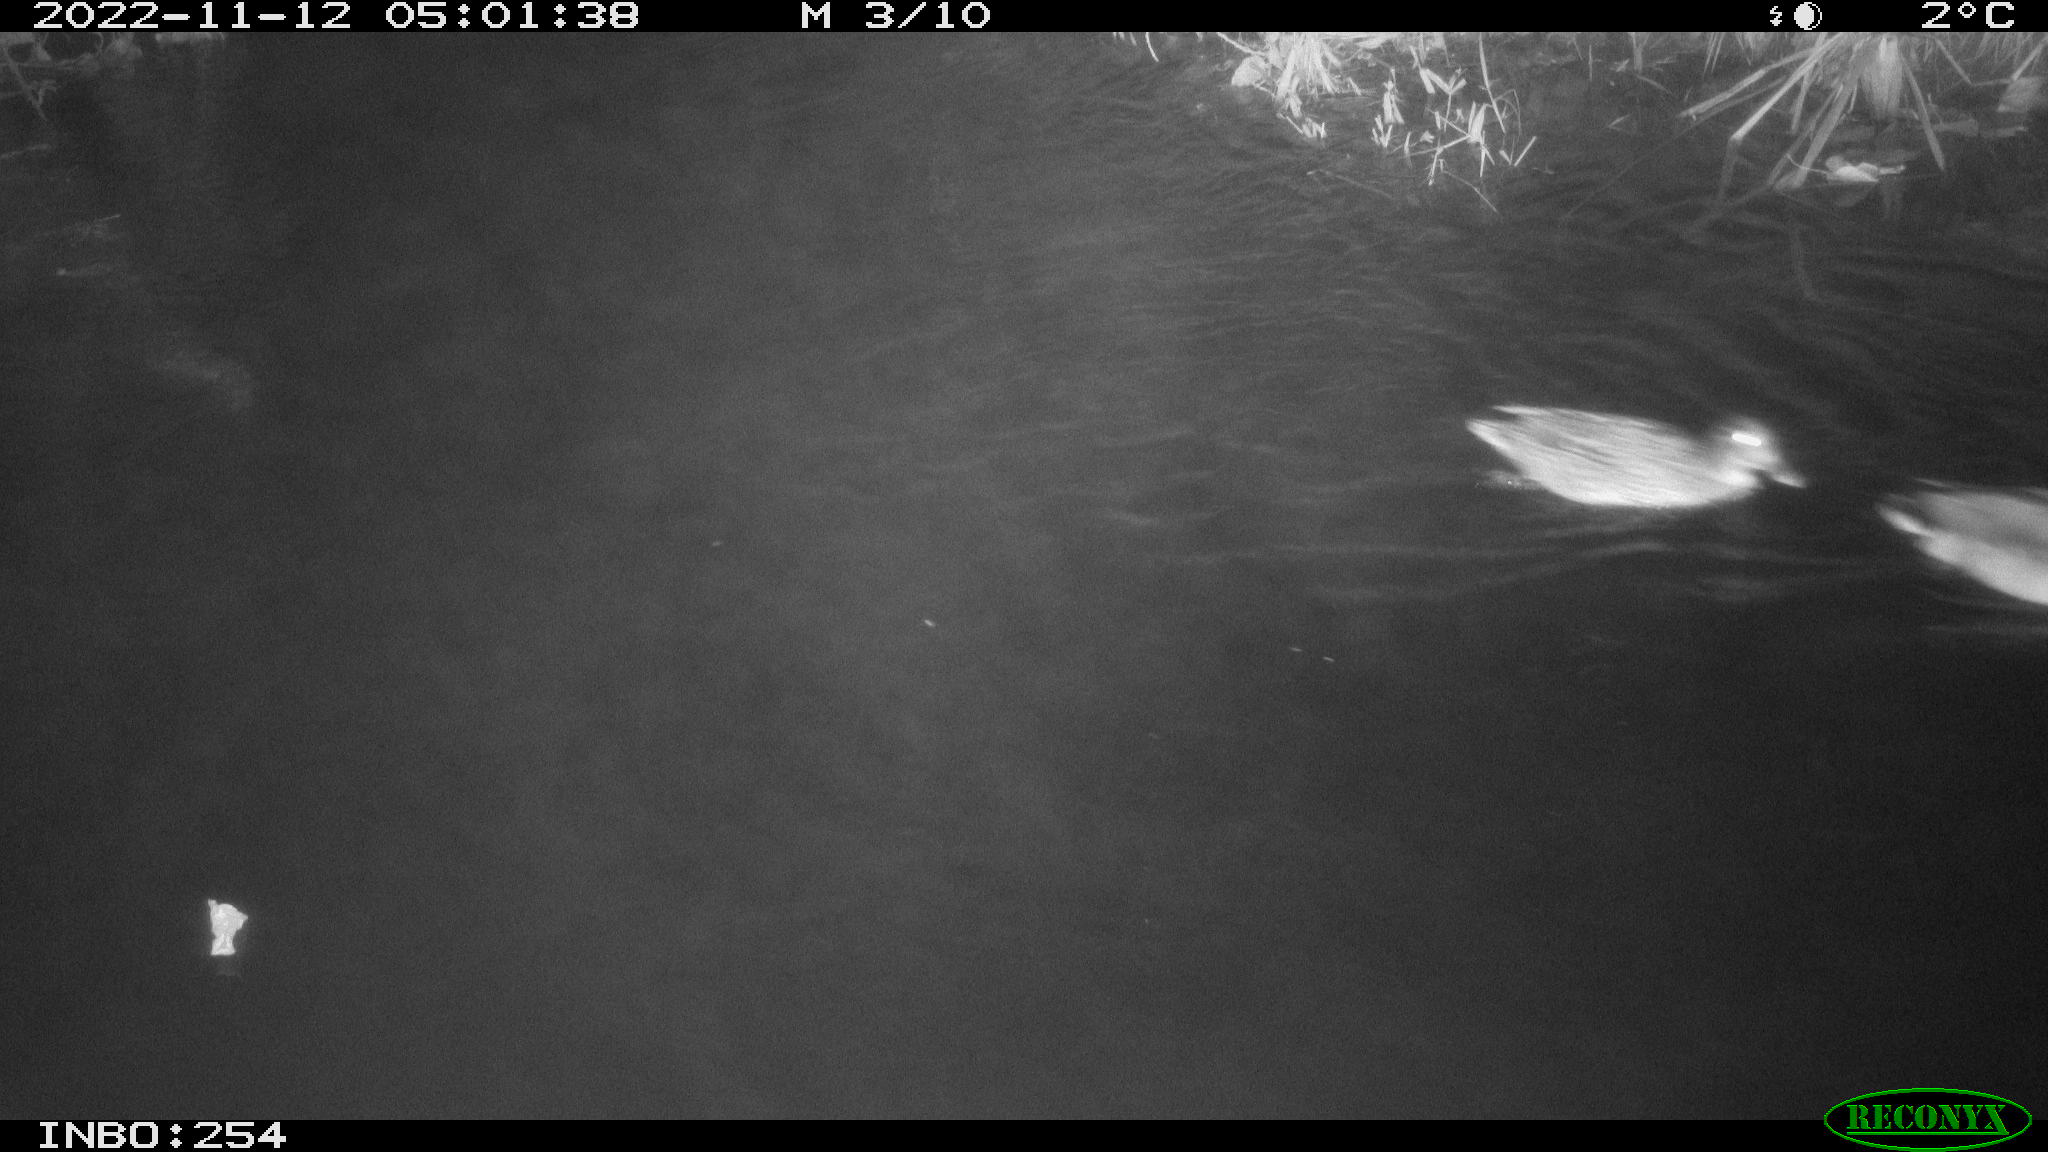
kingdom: Animalia
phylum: Chordata
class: Aves
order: Anseriformes
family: Anatidae
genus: Anas
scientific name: Anas
